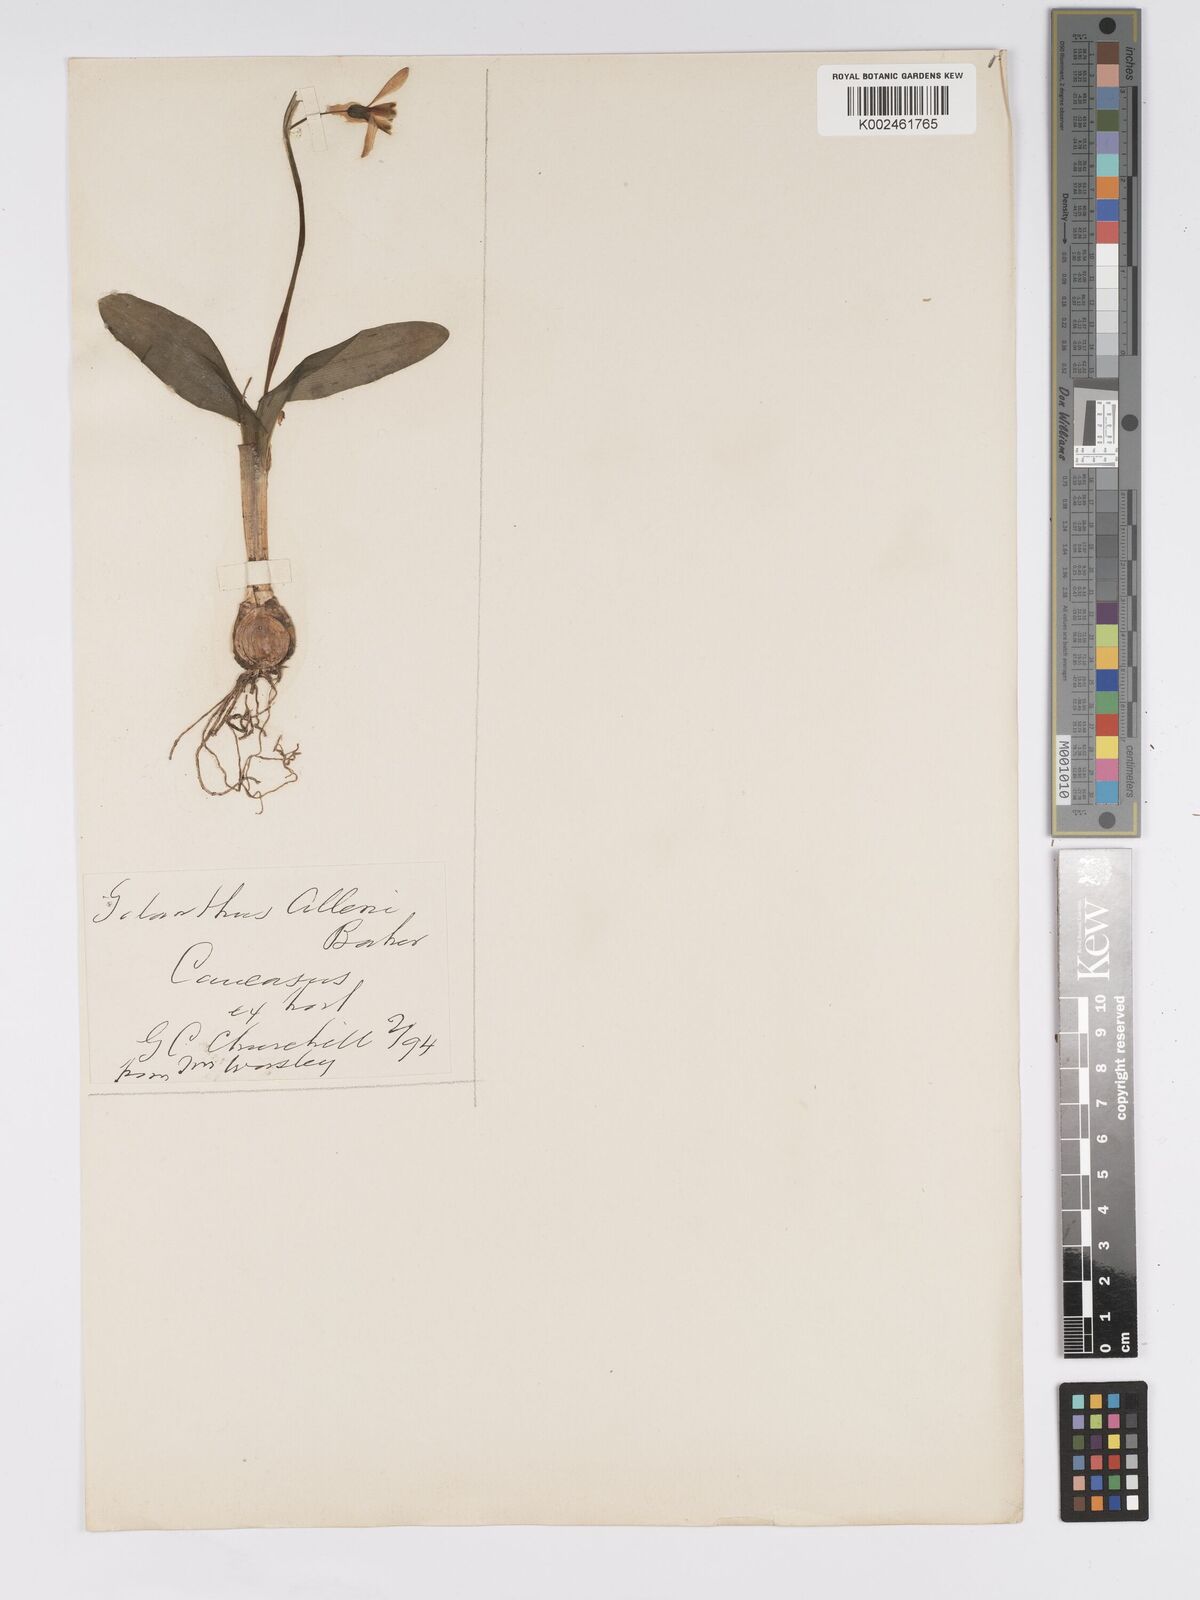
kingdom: Plantae
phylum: Tracheophyta
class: Liliopsida
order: Asparagales
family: Amaryllidaceae
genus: Galanthus
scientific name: Galanthus allenii
